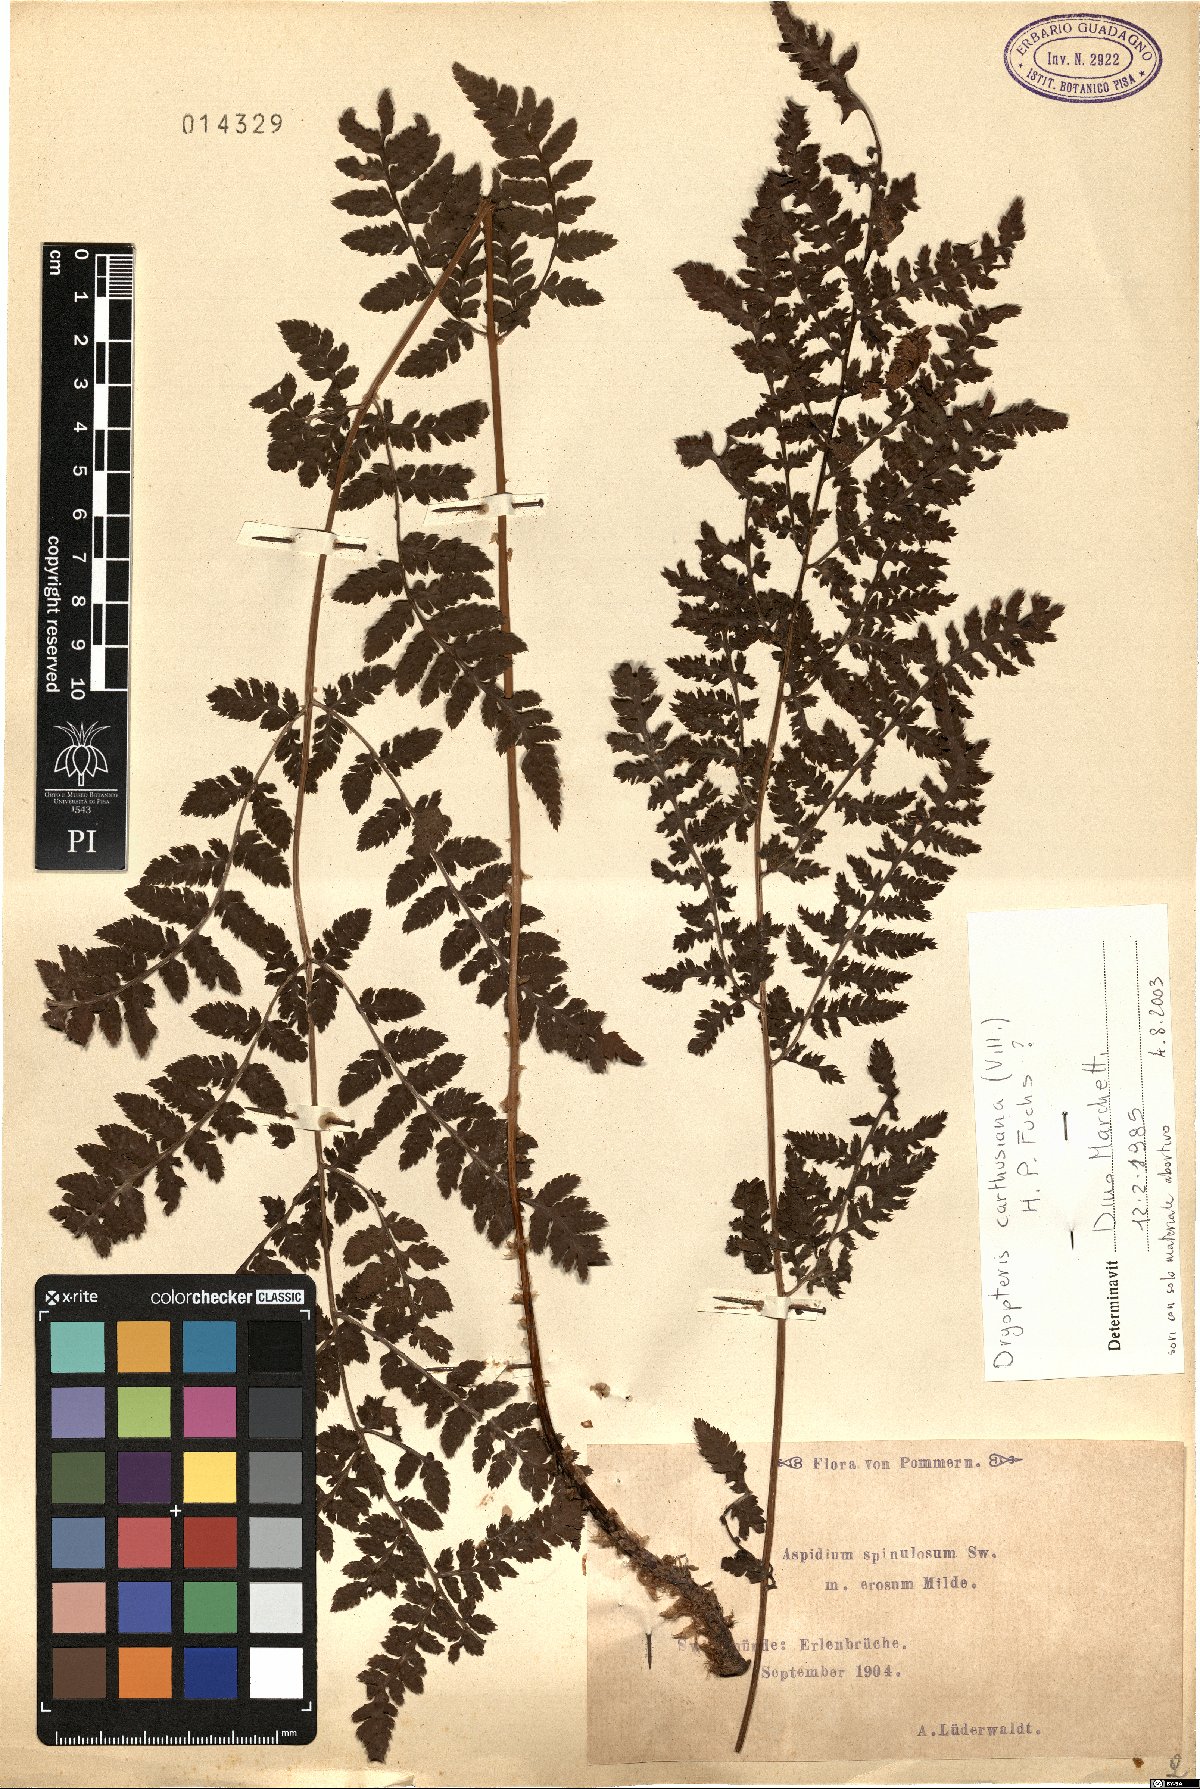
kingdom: Plantae
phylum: Tracheophyta
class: Polypodiopsida
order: Polypodiales
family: Dryopteridaceae
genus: Dryopteris
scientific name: Dryopteris carthusiana
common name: Narrow buckler-fern
